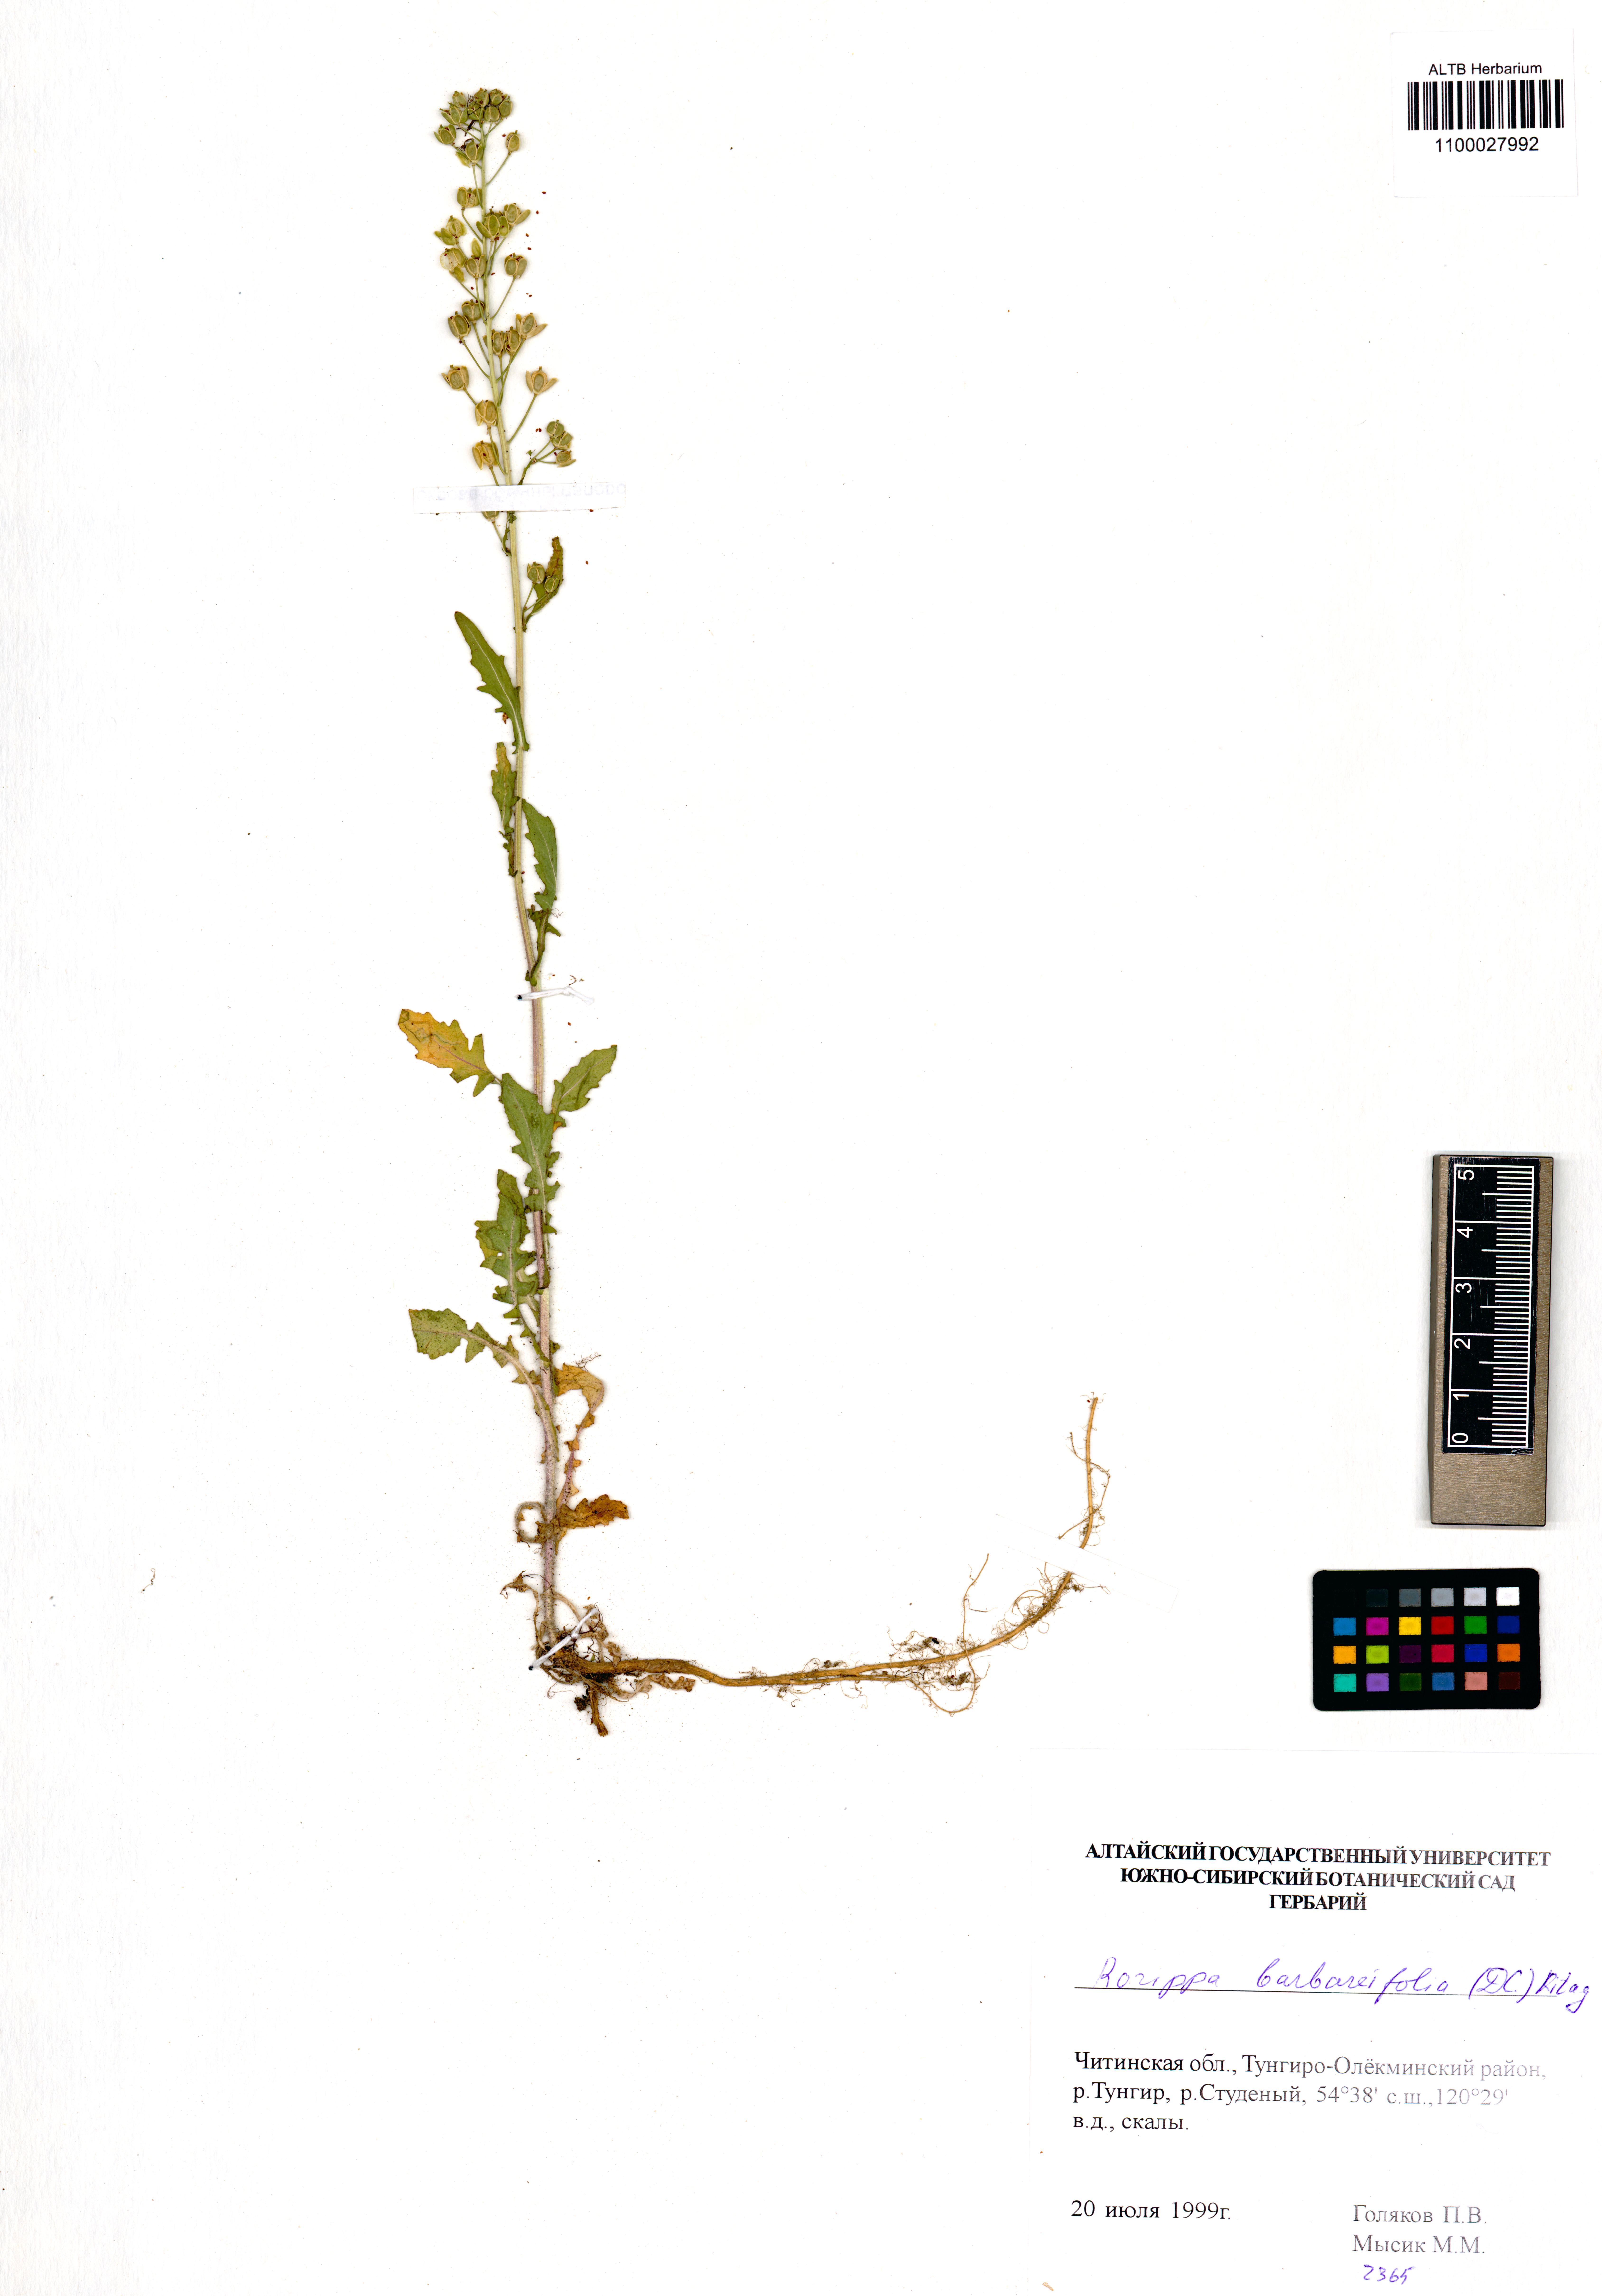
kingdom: Plantae
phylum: Tracheophyta
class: Magnoliopsida
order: Brassicales
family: Brassicaceae
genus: Rorippa
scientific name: Rorippa barbaraefolia
